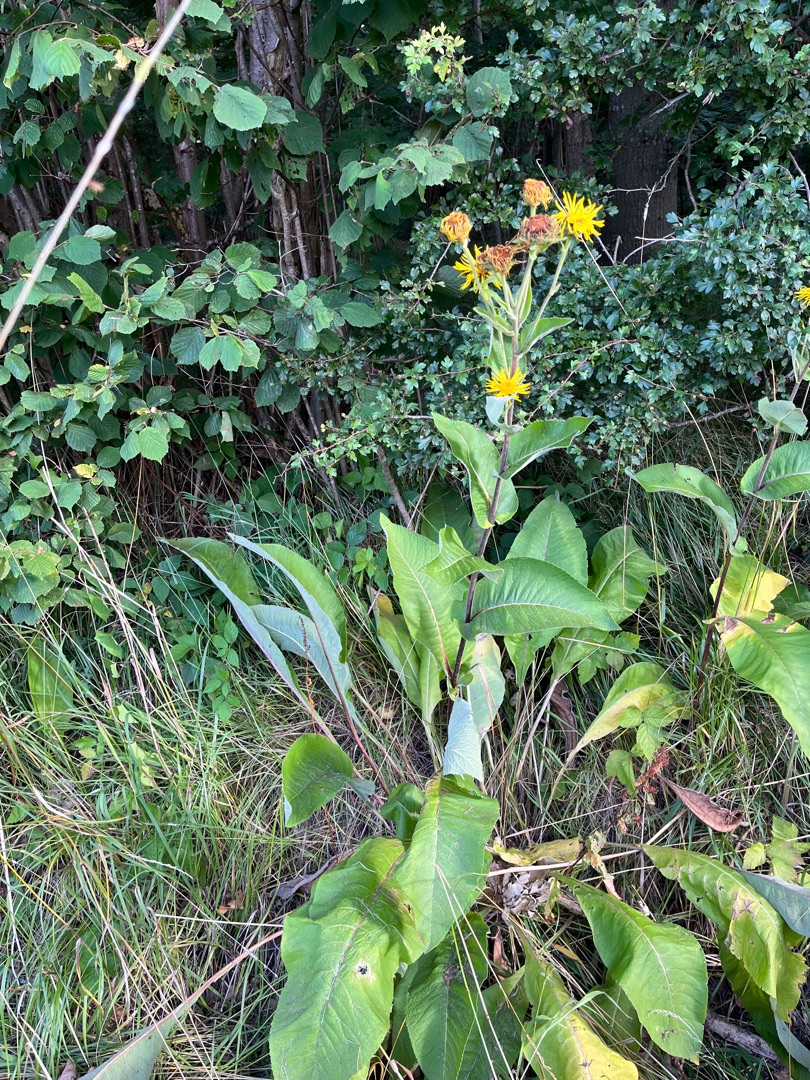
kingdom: Plantae
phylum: Tracheophyta
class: Magnoliopsida
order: Asterales
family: Asteraceae
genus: Inula
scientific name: Inula helenium
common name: Læge-alant
